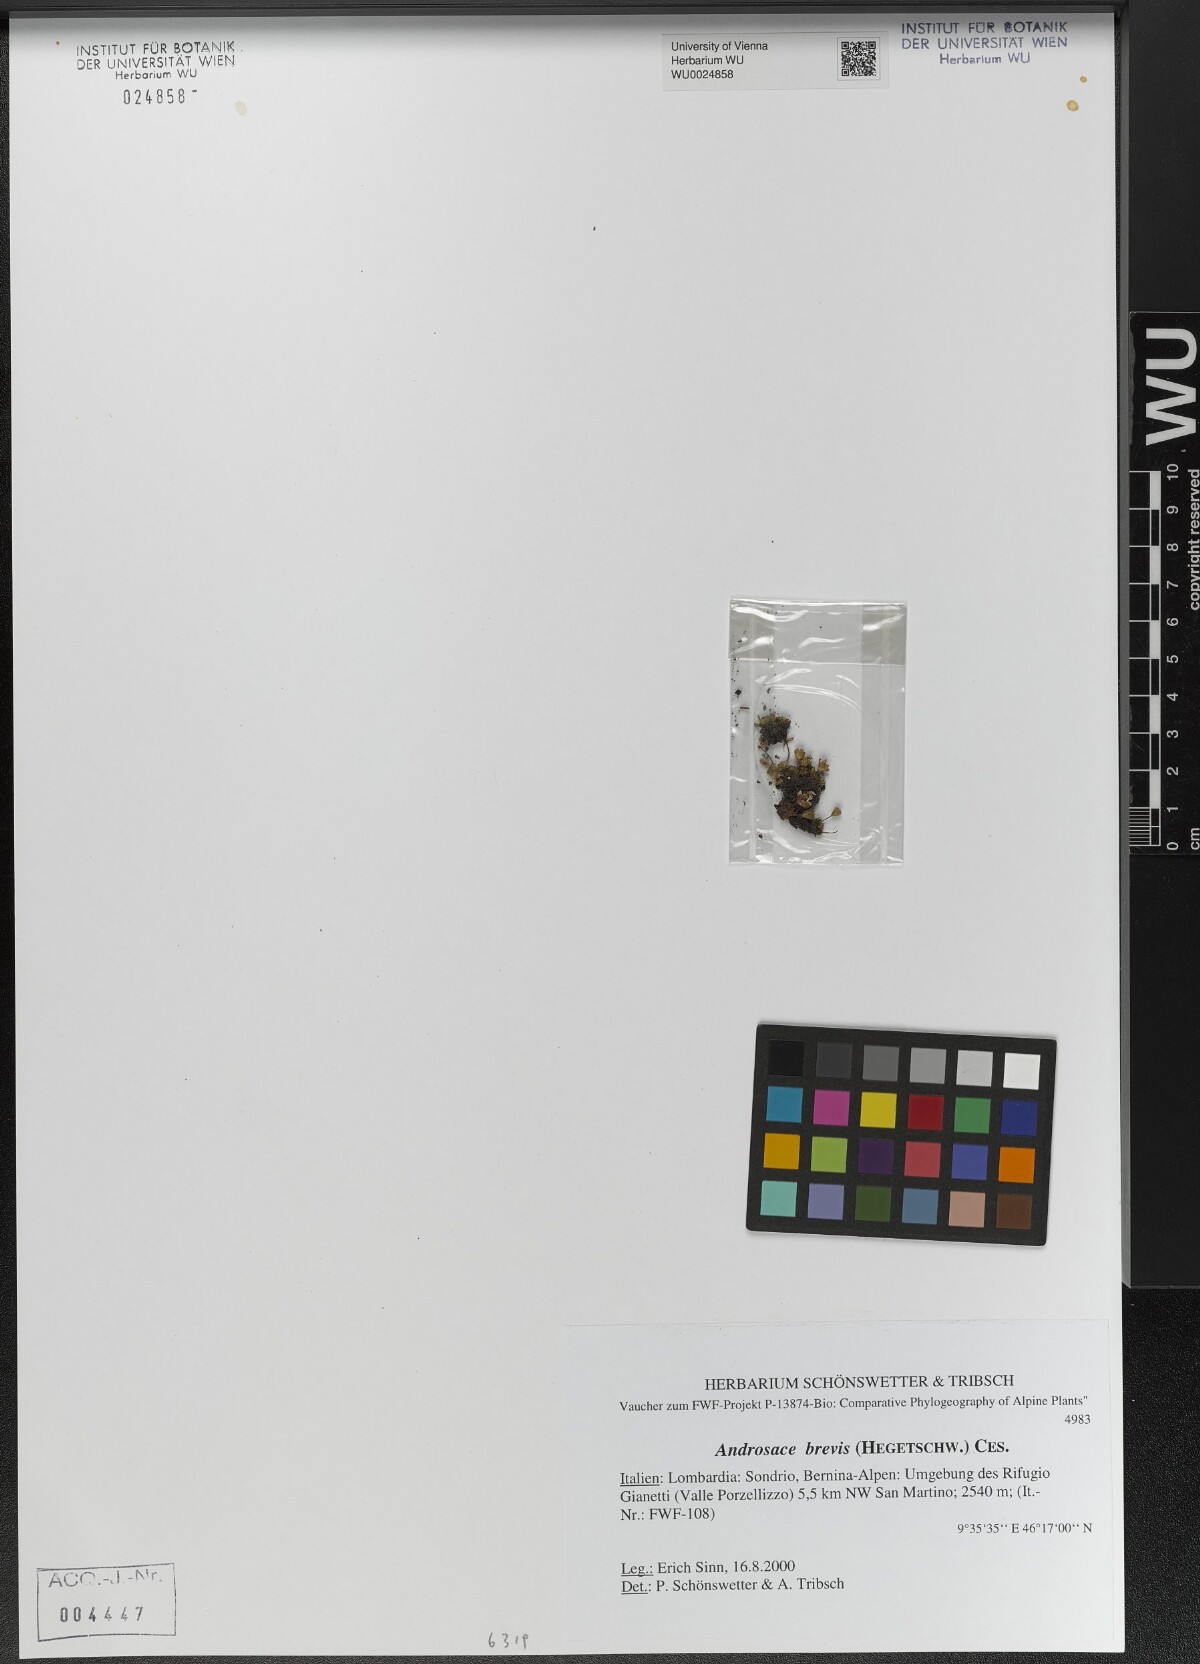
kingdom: Plantae
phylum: Tracheophyta
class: Magnoliopsida
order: Ericales
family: Primulaceae
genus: Androsace
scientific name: Androsace brevis
